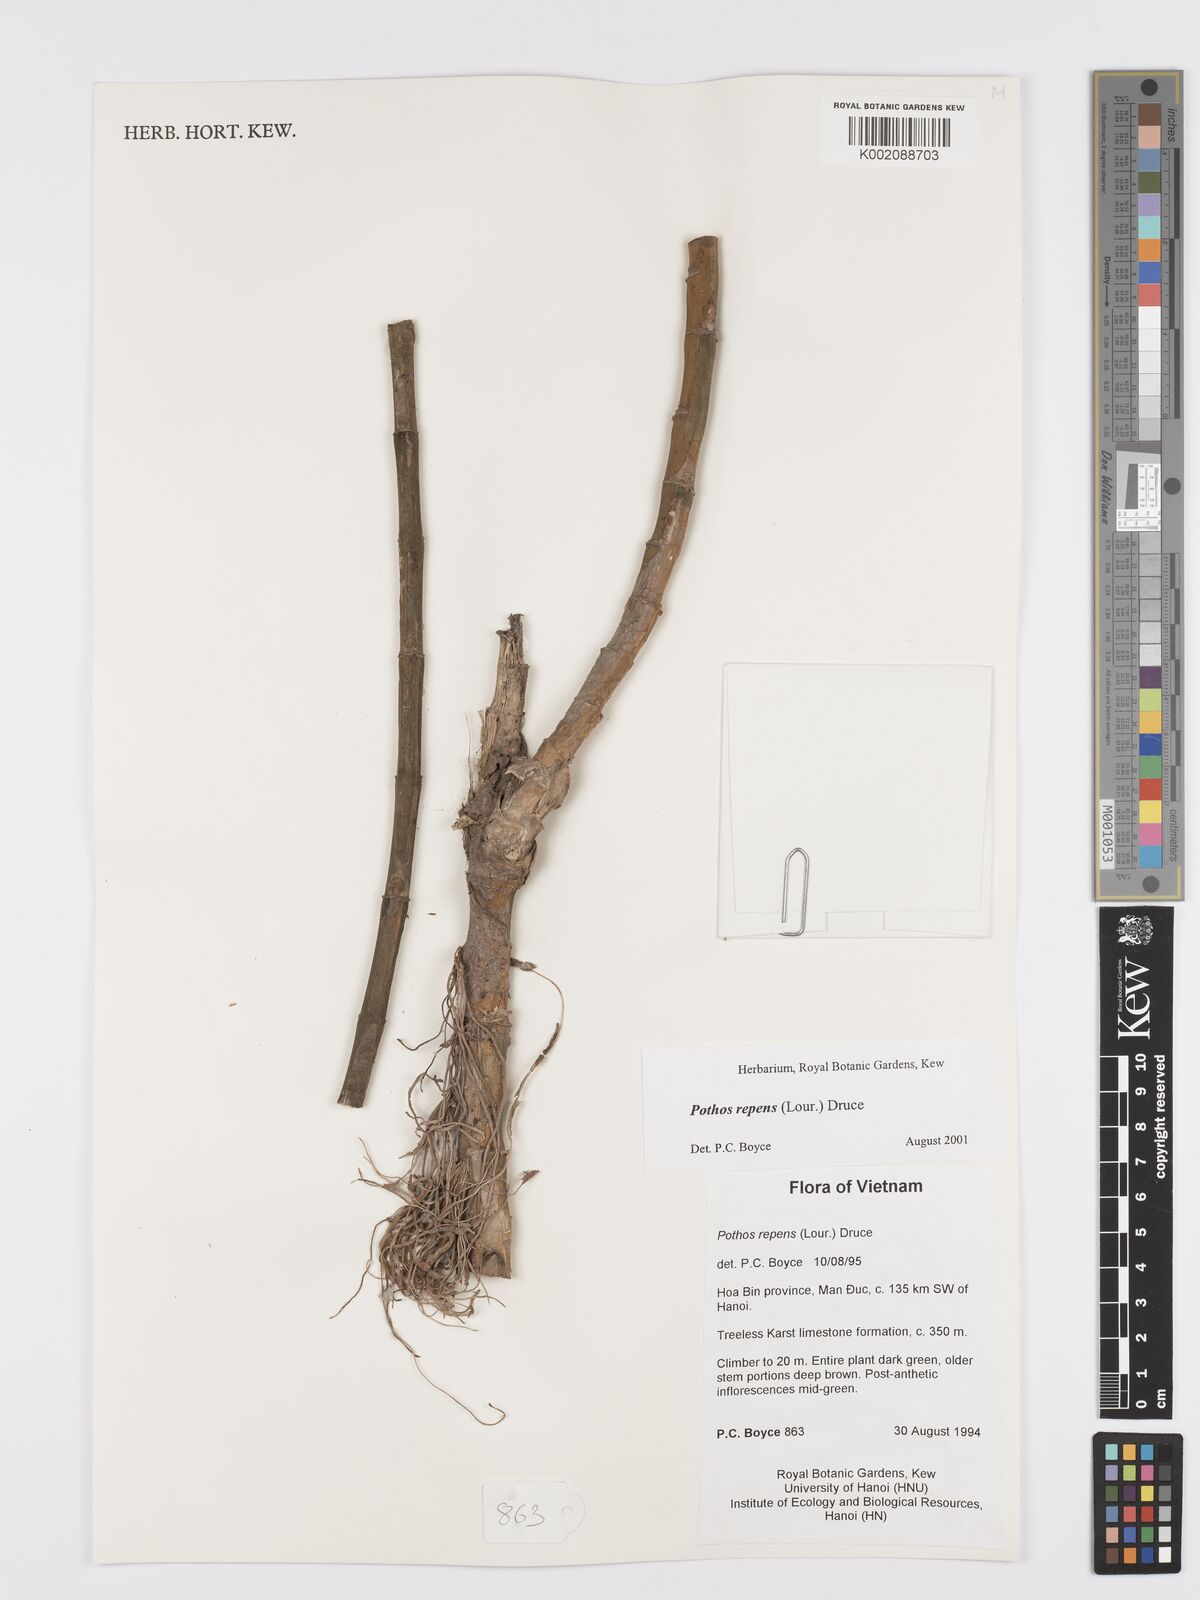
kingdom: Plantae
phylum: Tracheophyta
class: Liliopsida
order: Alismatales
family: Araceae
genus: Pothos
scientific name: Pothos repens
